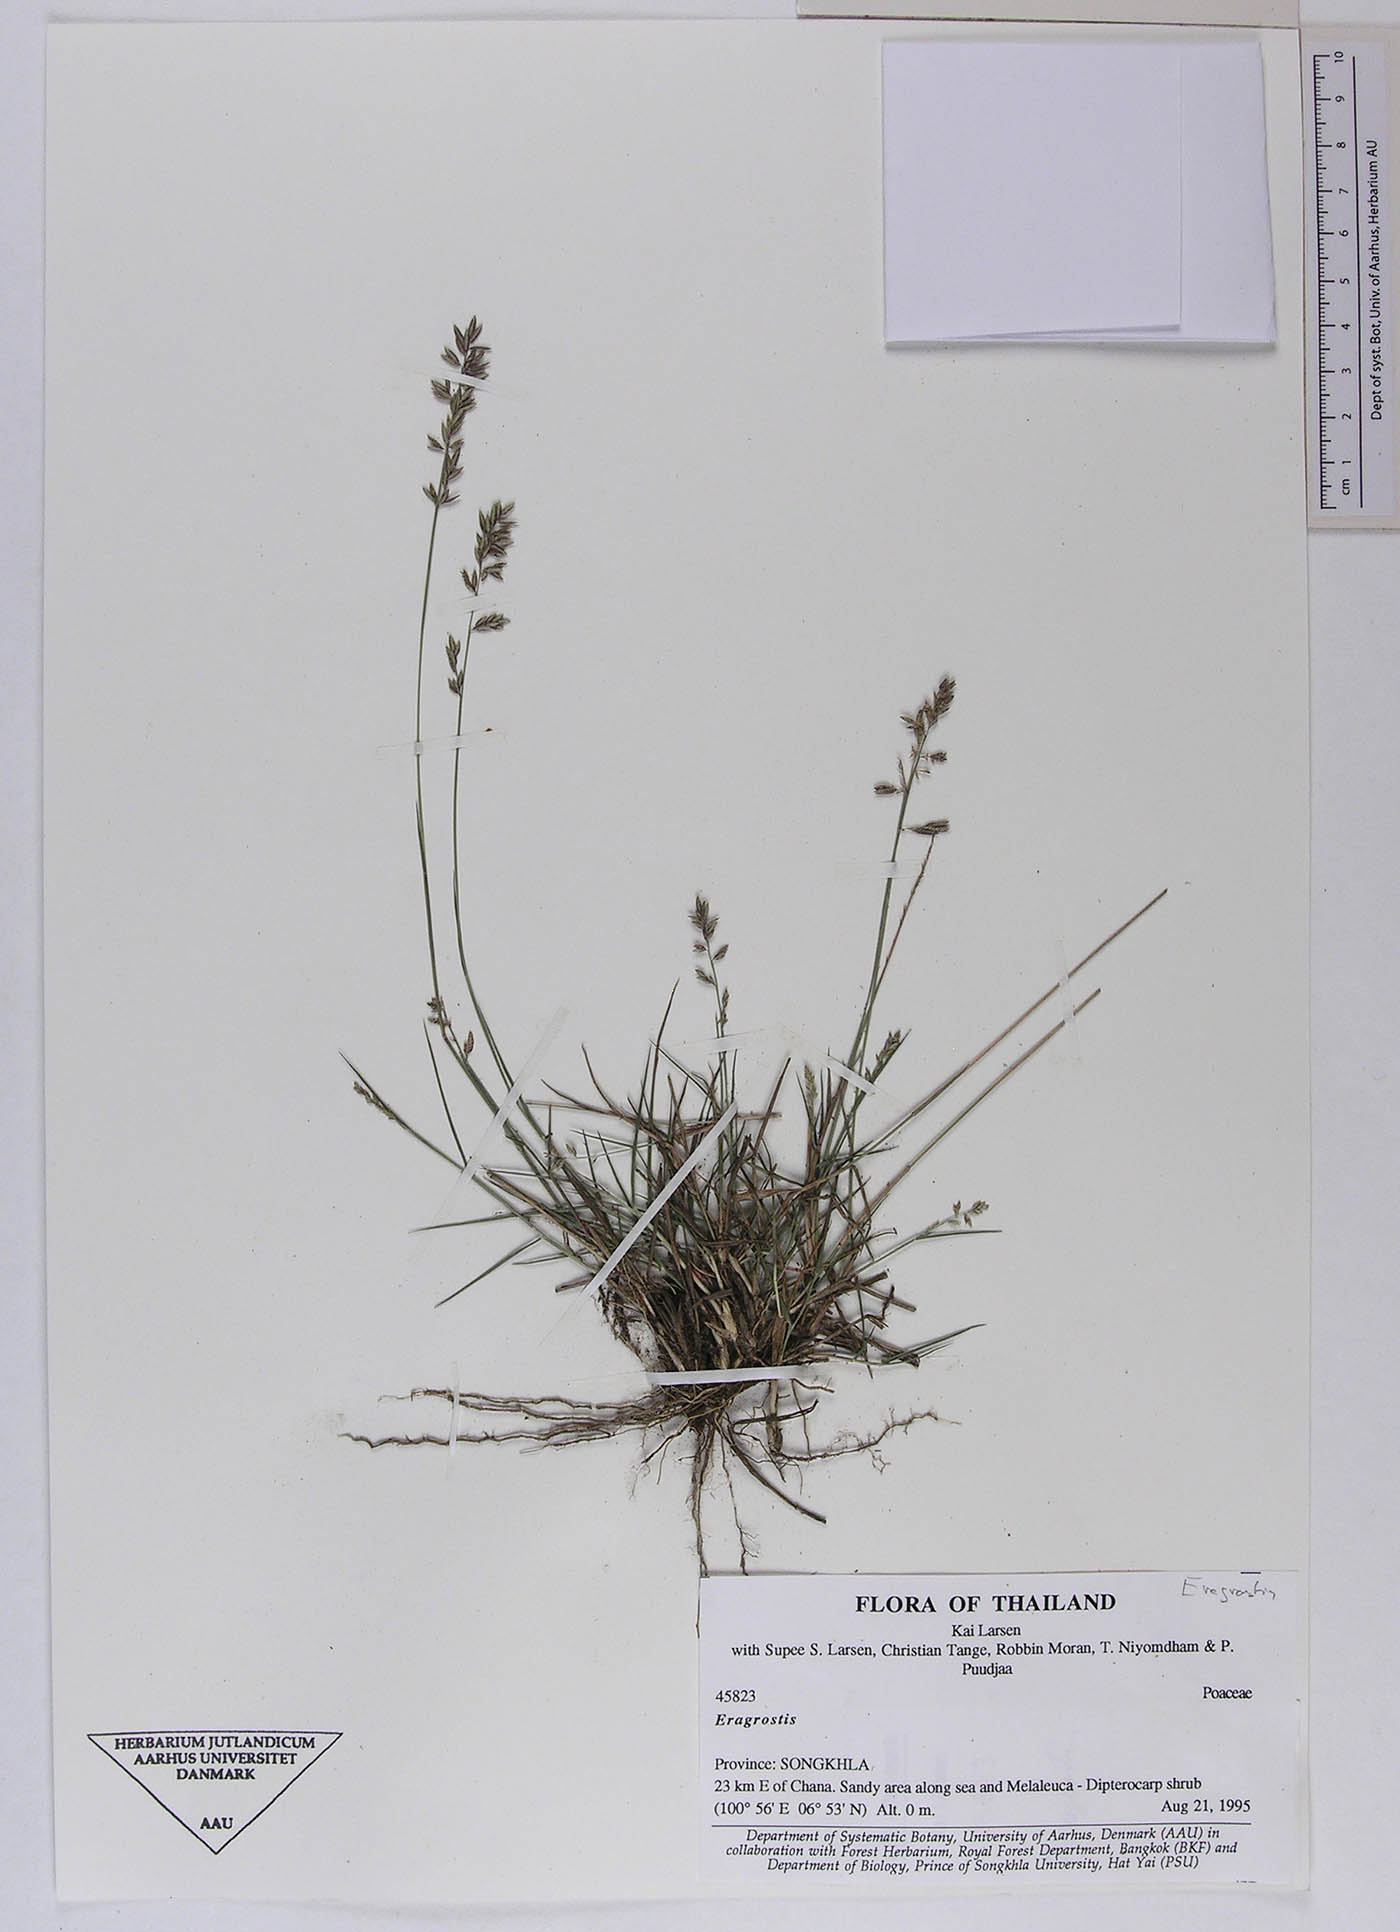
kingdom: Plantae
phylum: Tracheophyta
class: Liliopsida
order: Poales
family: Poaceae
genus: Eragrostis
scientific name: Eragrostis brownii
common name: Lovegrass
